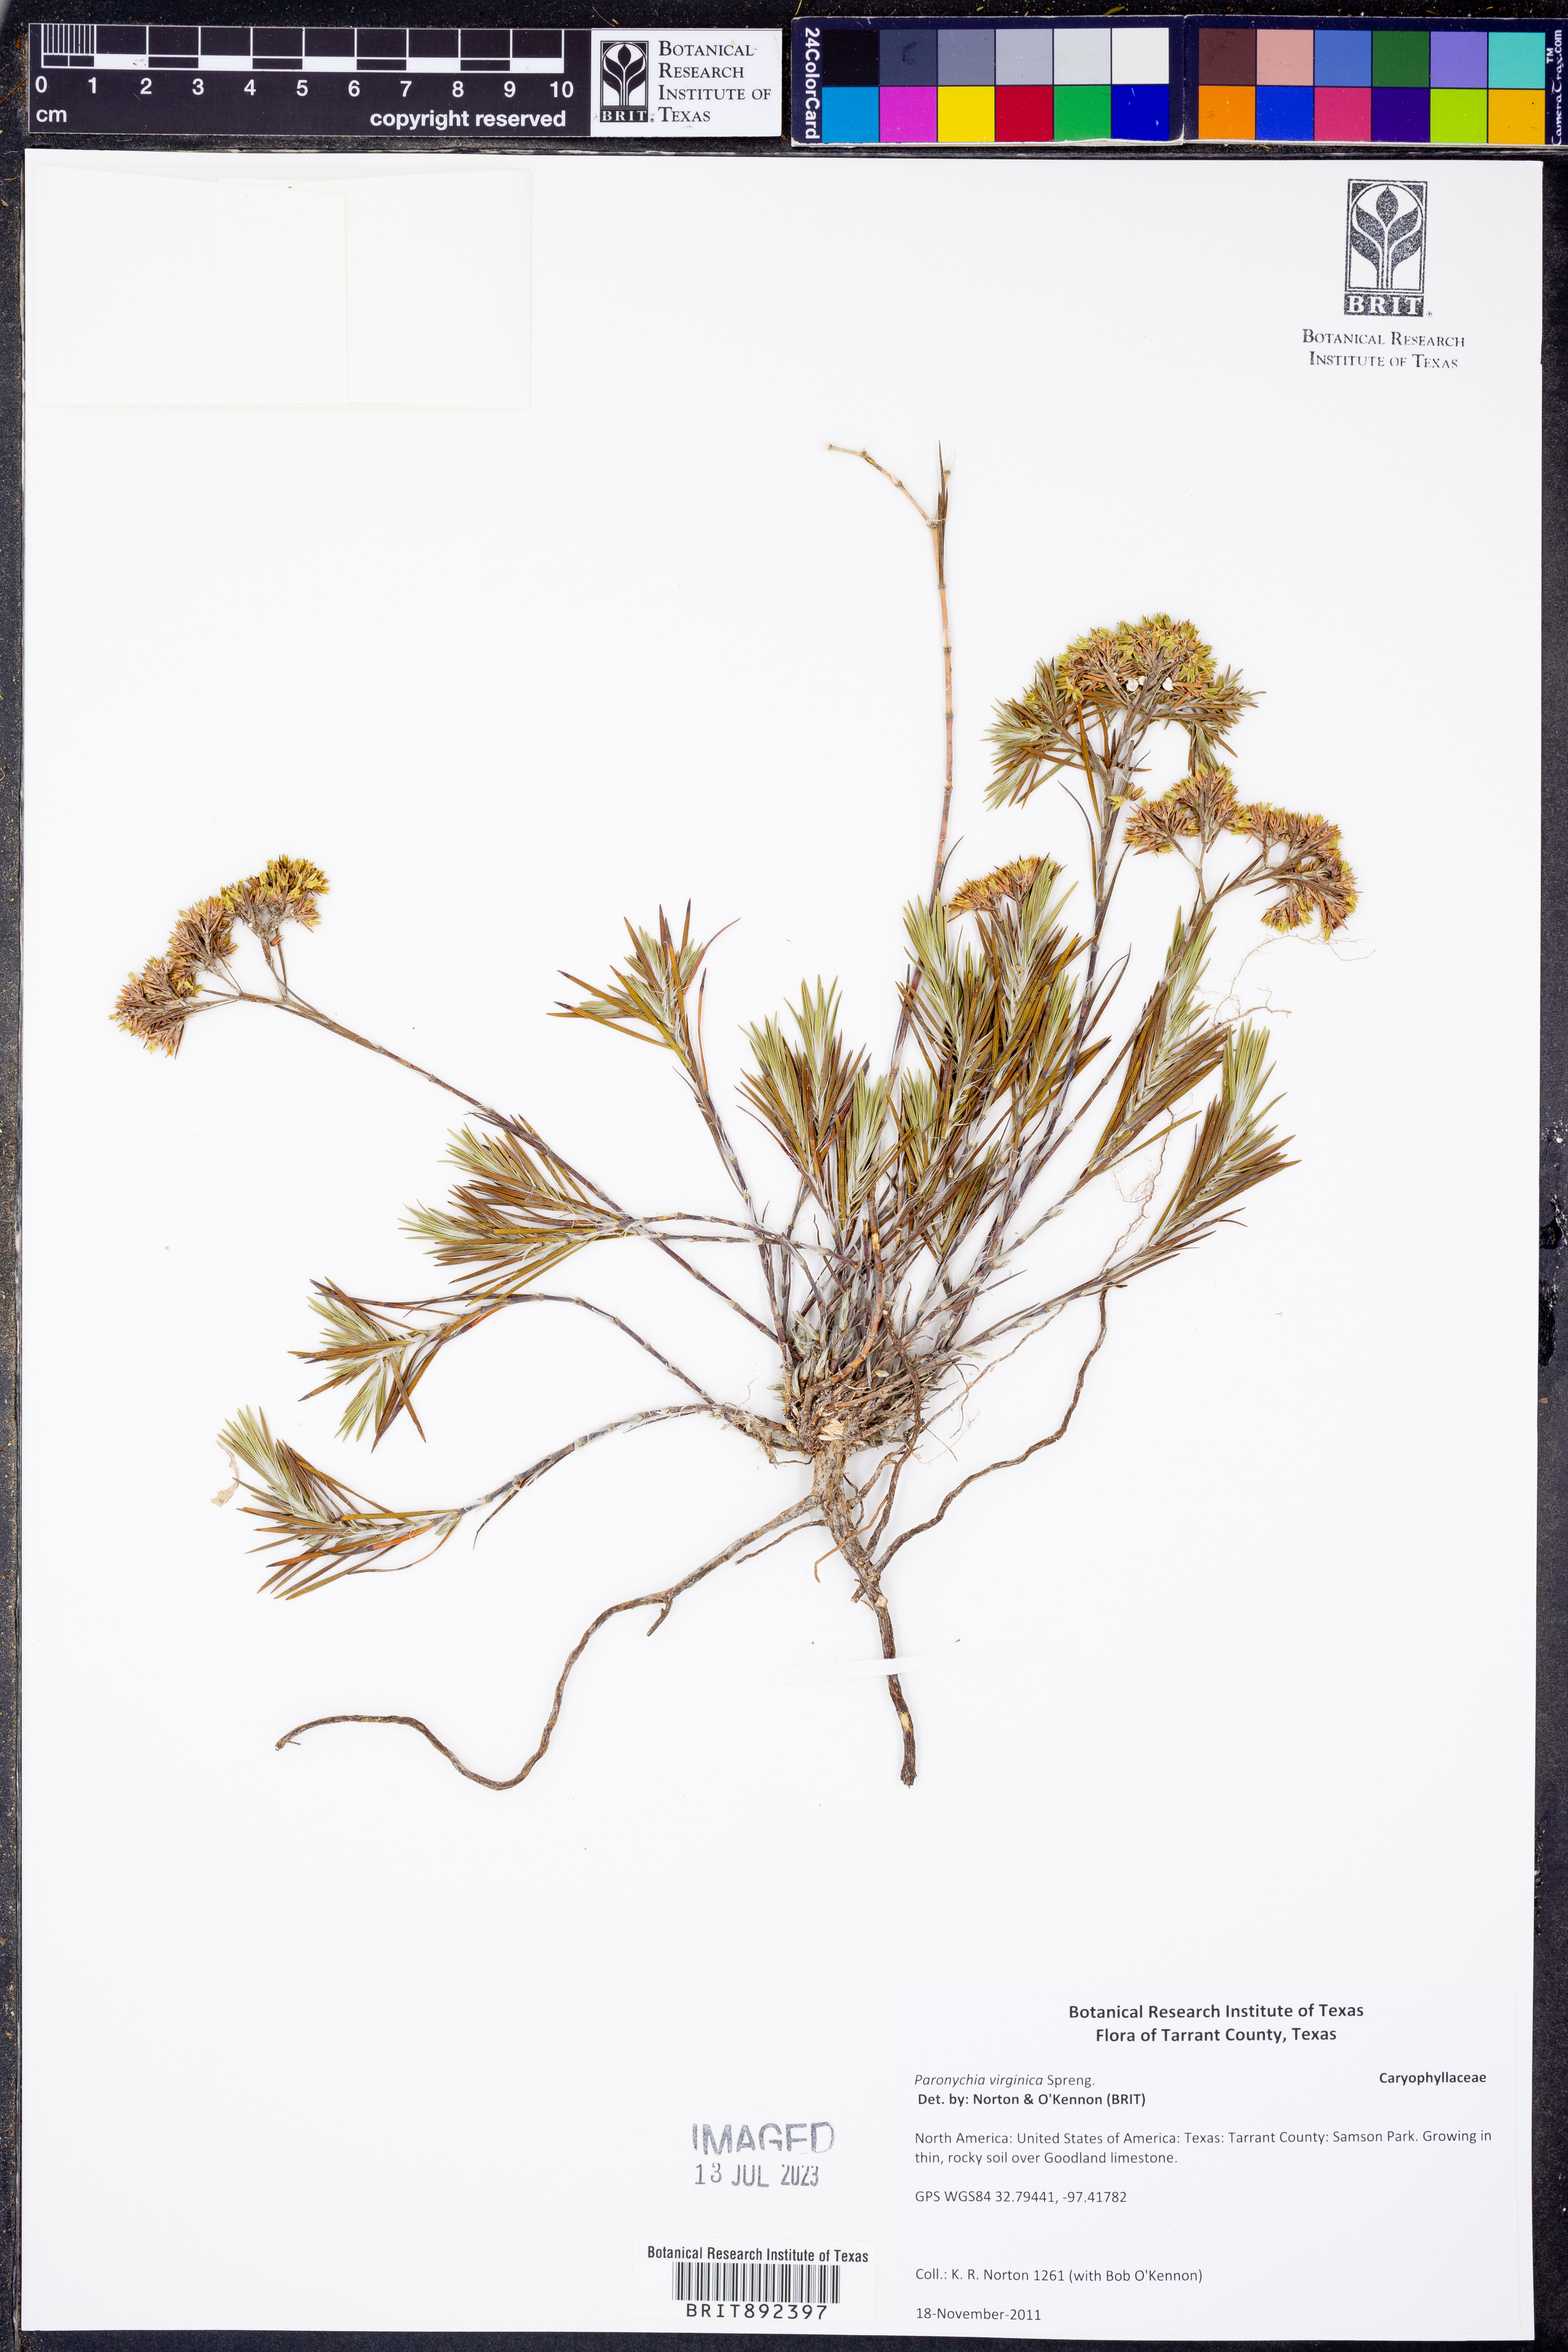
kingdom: Plantae
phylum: Tracheophyta
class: Magnoliopsida
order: Caryophyllales
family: Caryophyllaceae
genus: Paronychia
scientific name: Paronychia virginica
